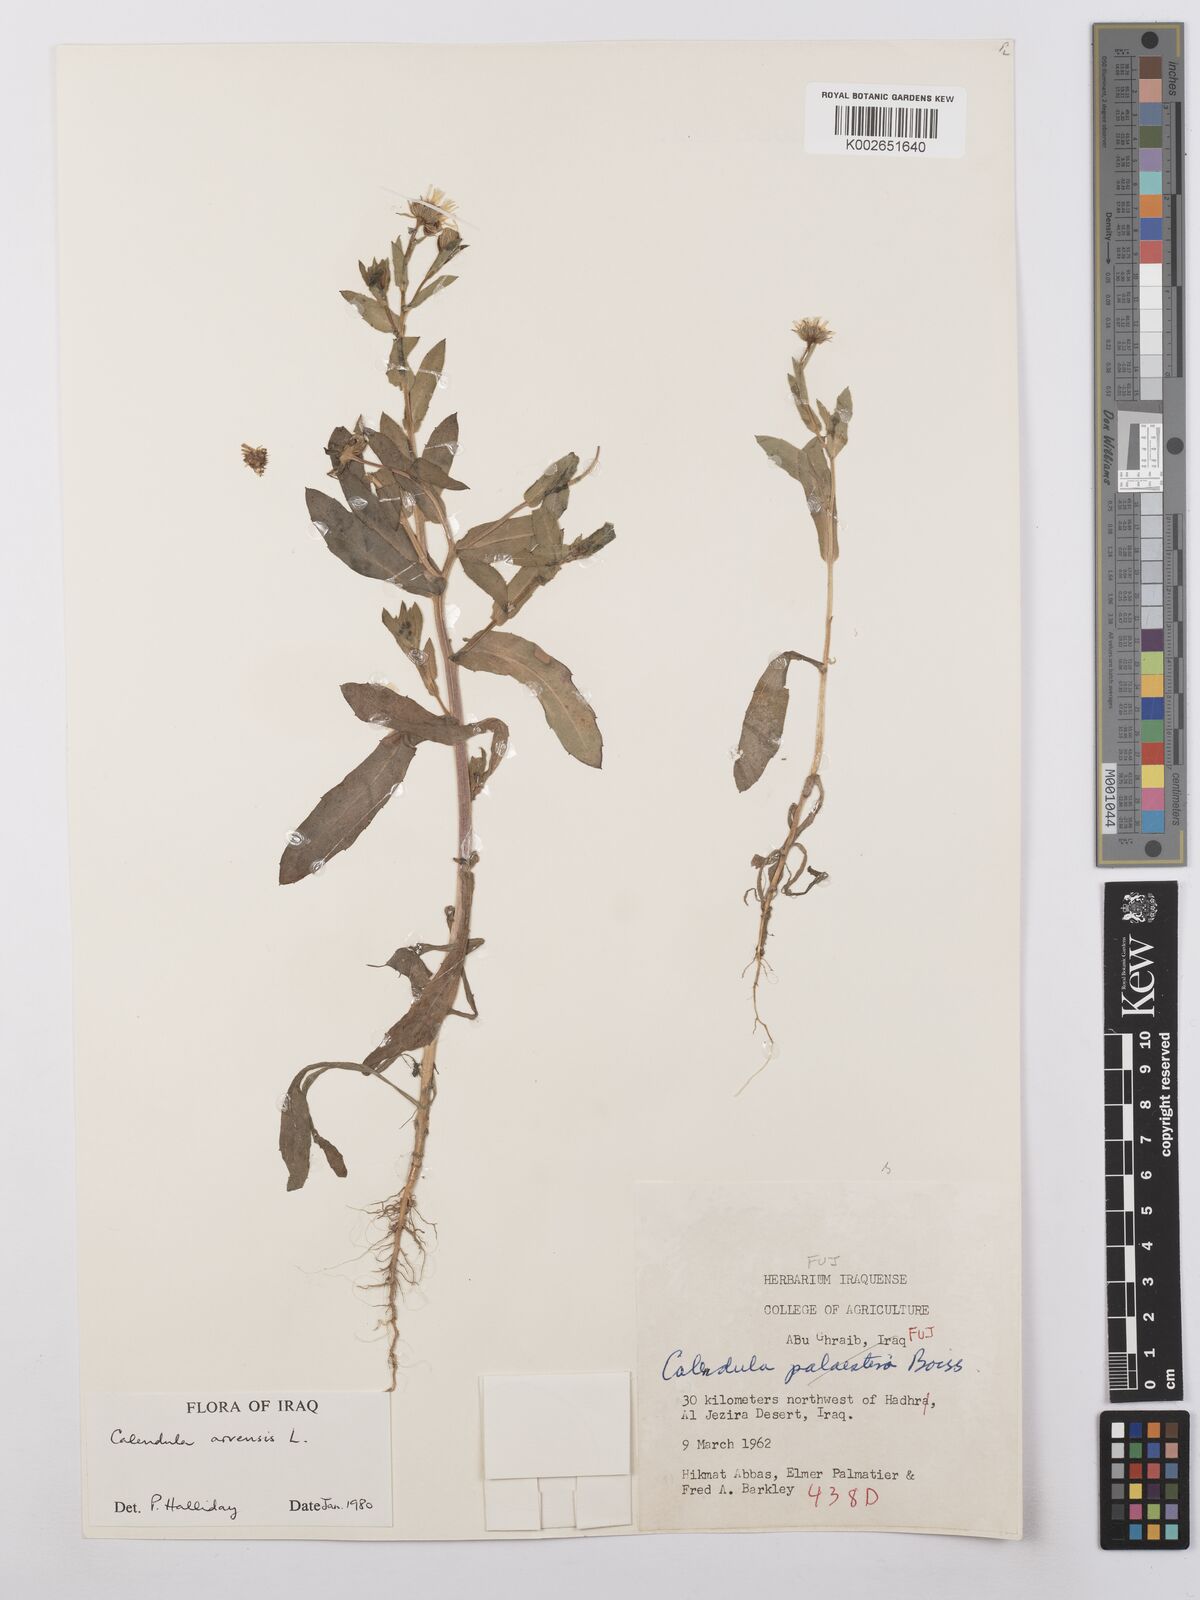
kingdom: Plantae
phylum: Tracheophyta
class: Magnoliopsida
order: Asterales
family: Asteraceae
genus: Calendula
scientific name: Calendula arvensis
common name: Field marigold
